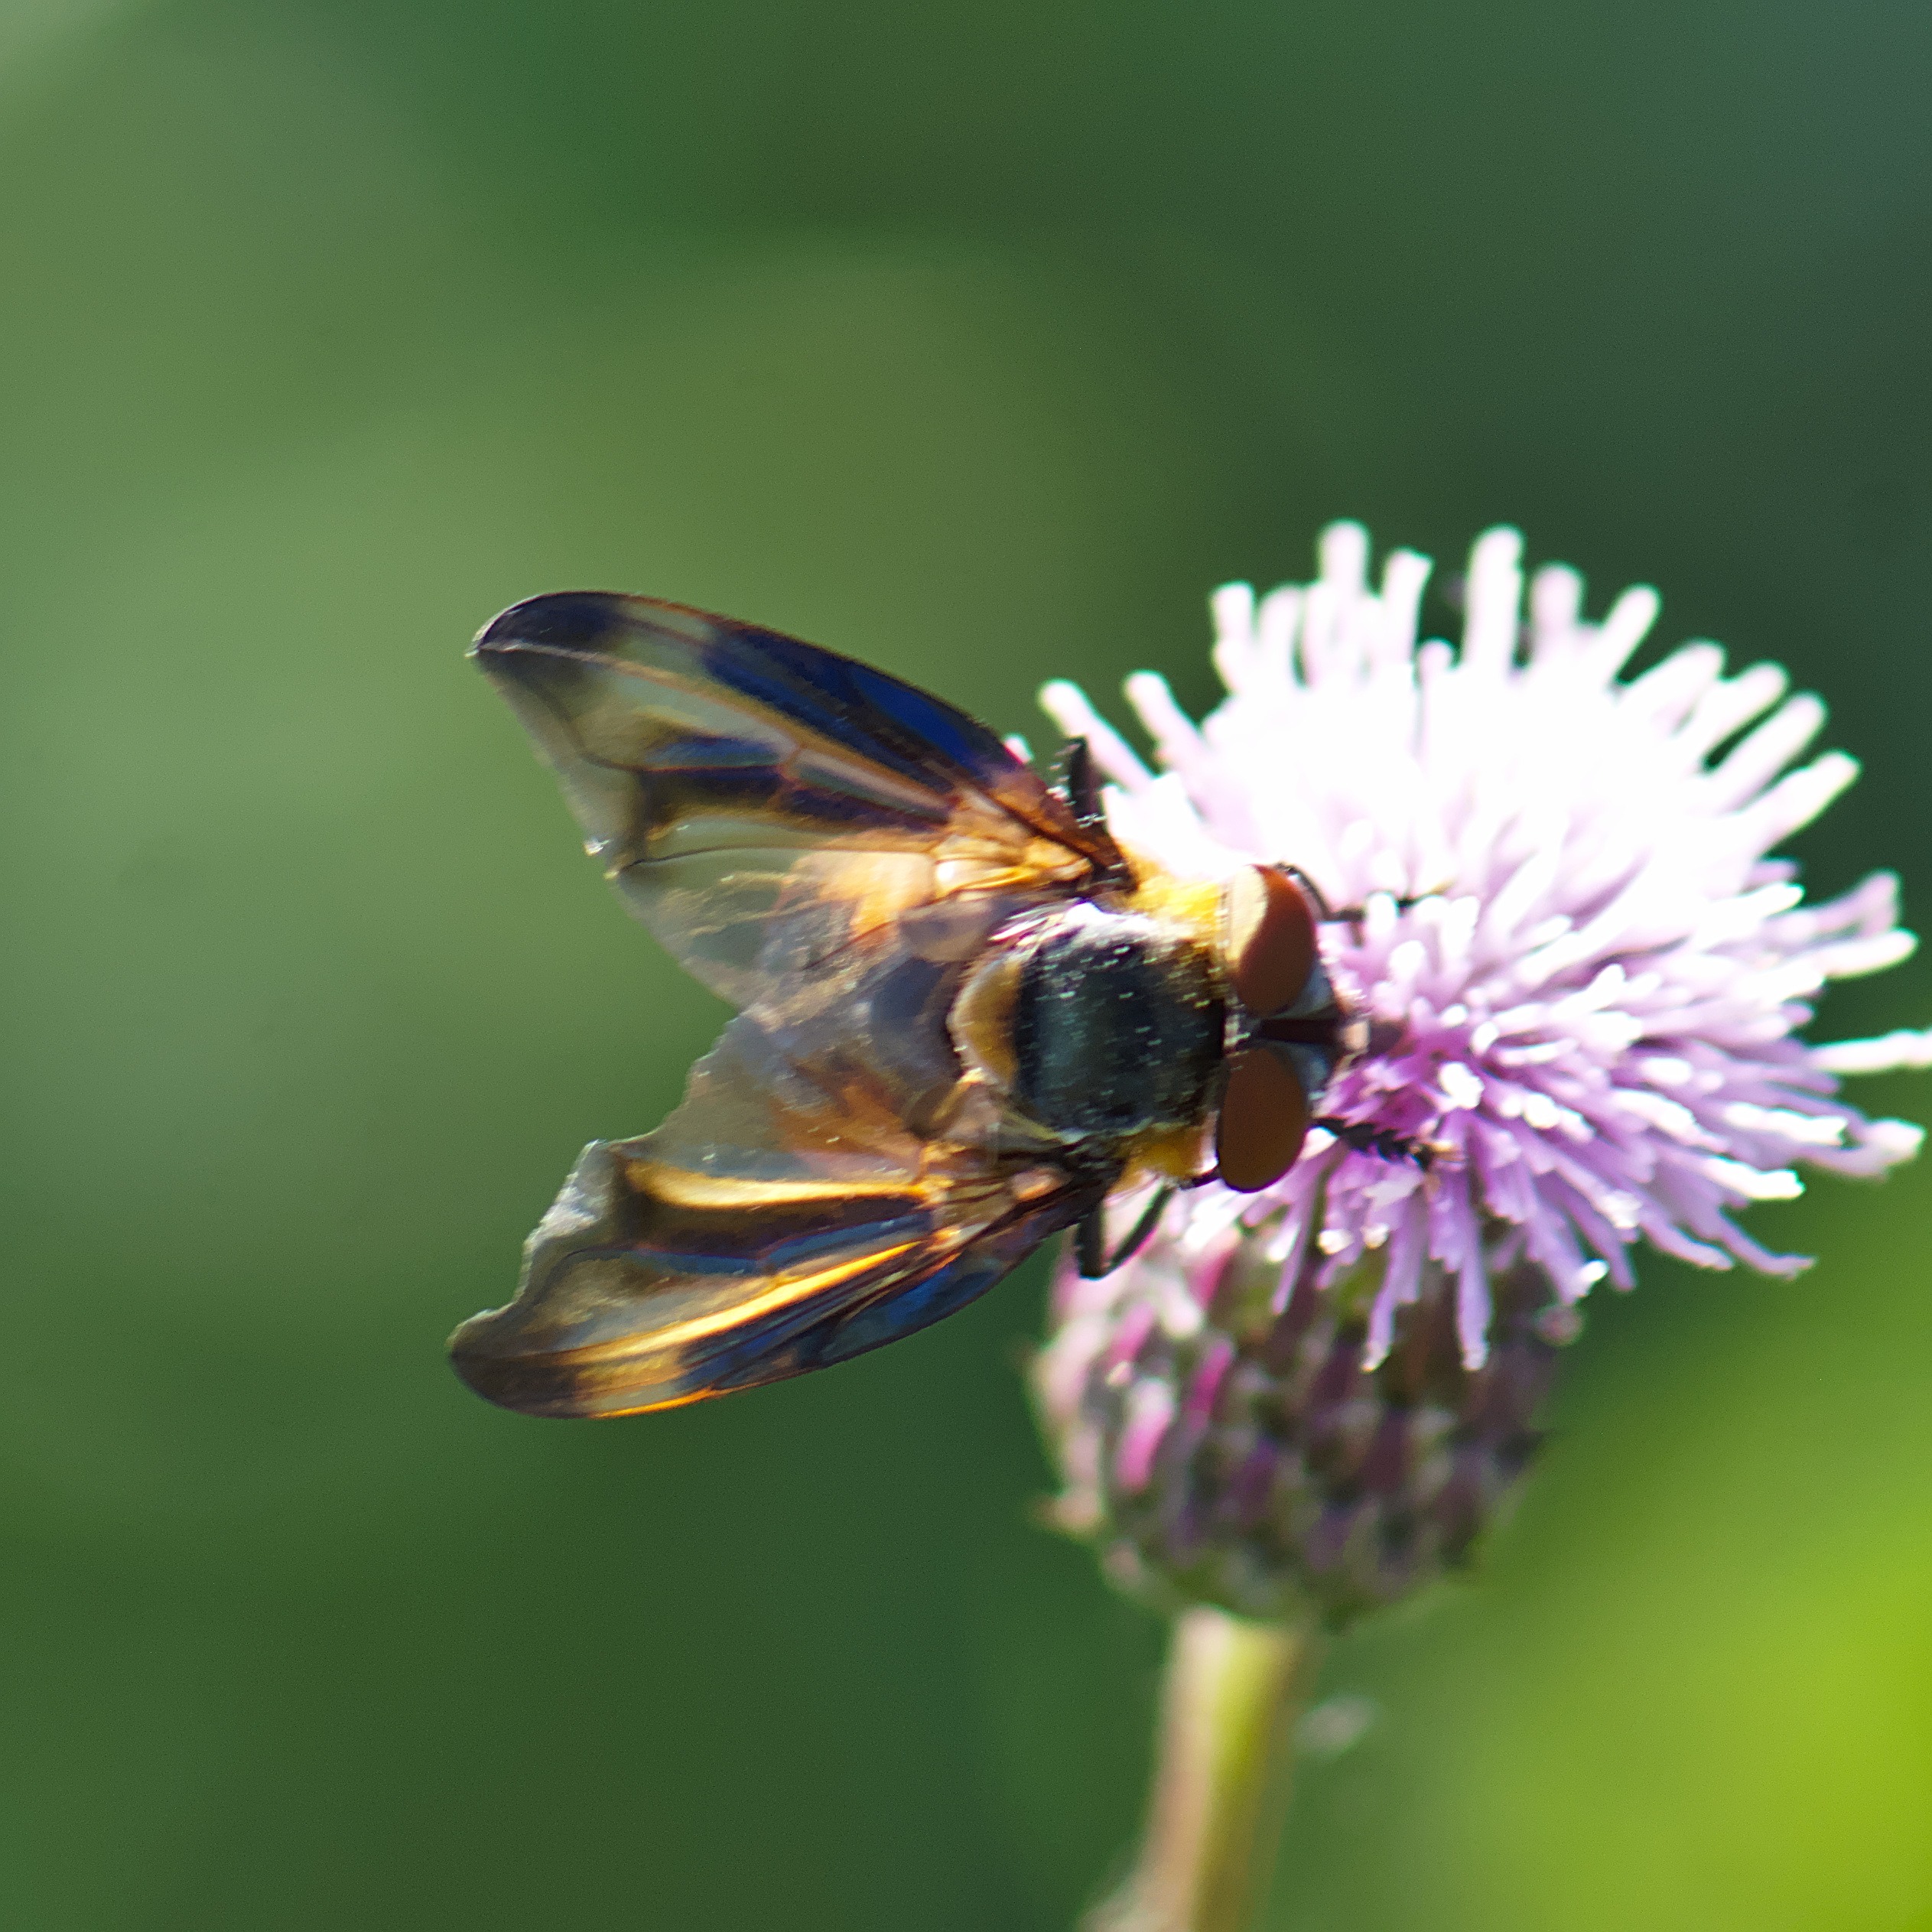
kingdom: Animalia
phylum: Arthropoda
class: Insecta
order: Diptera
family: Tachinidae
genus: Phasia
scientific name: Phasia hemiptera
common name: Blåvinget pragtsnylteflue
